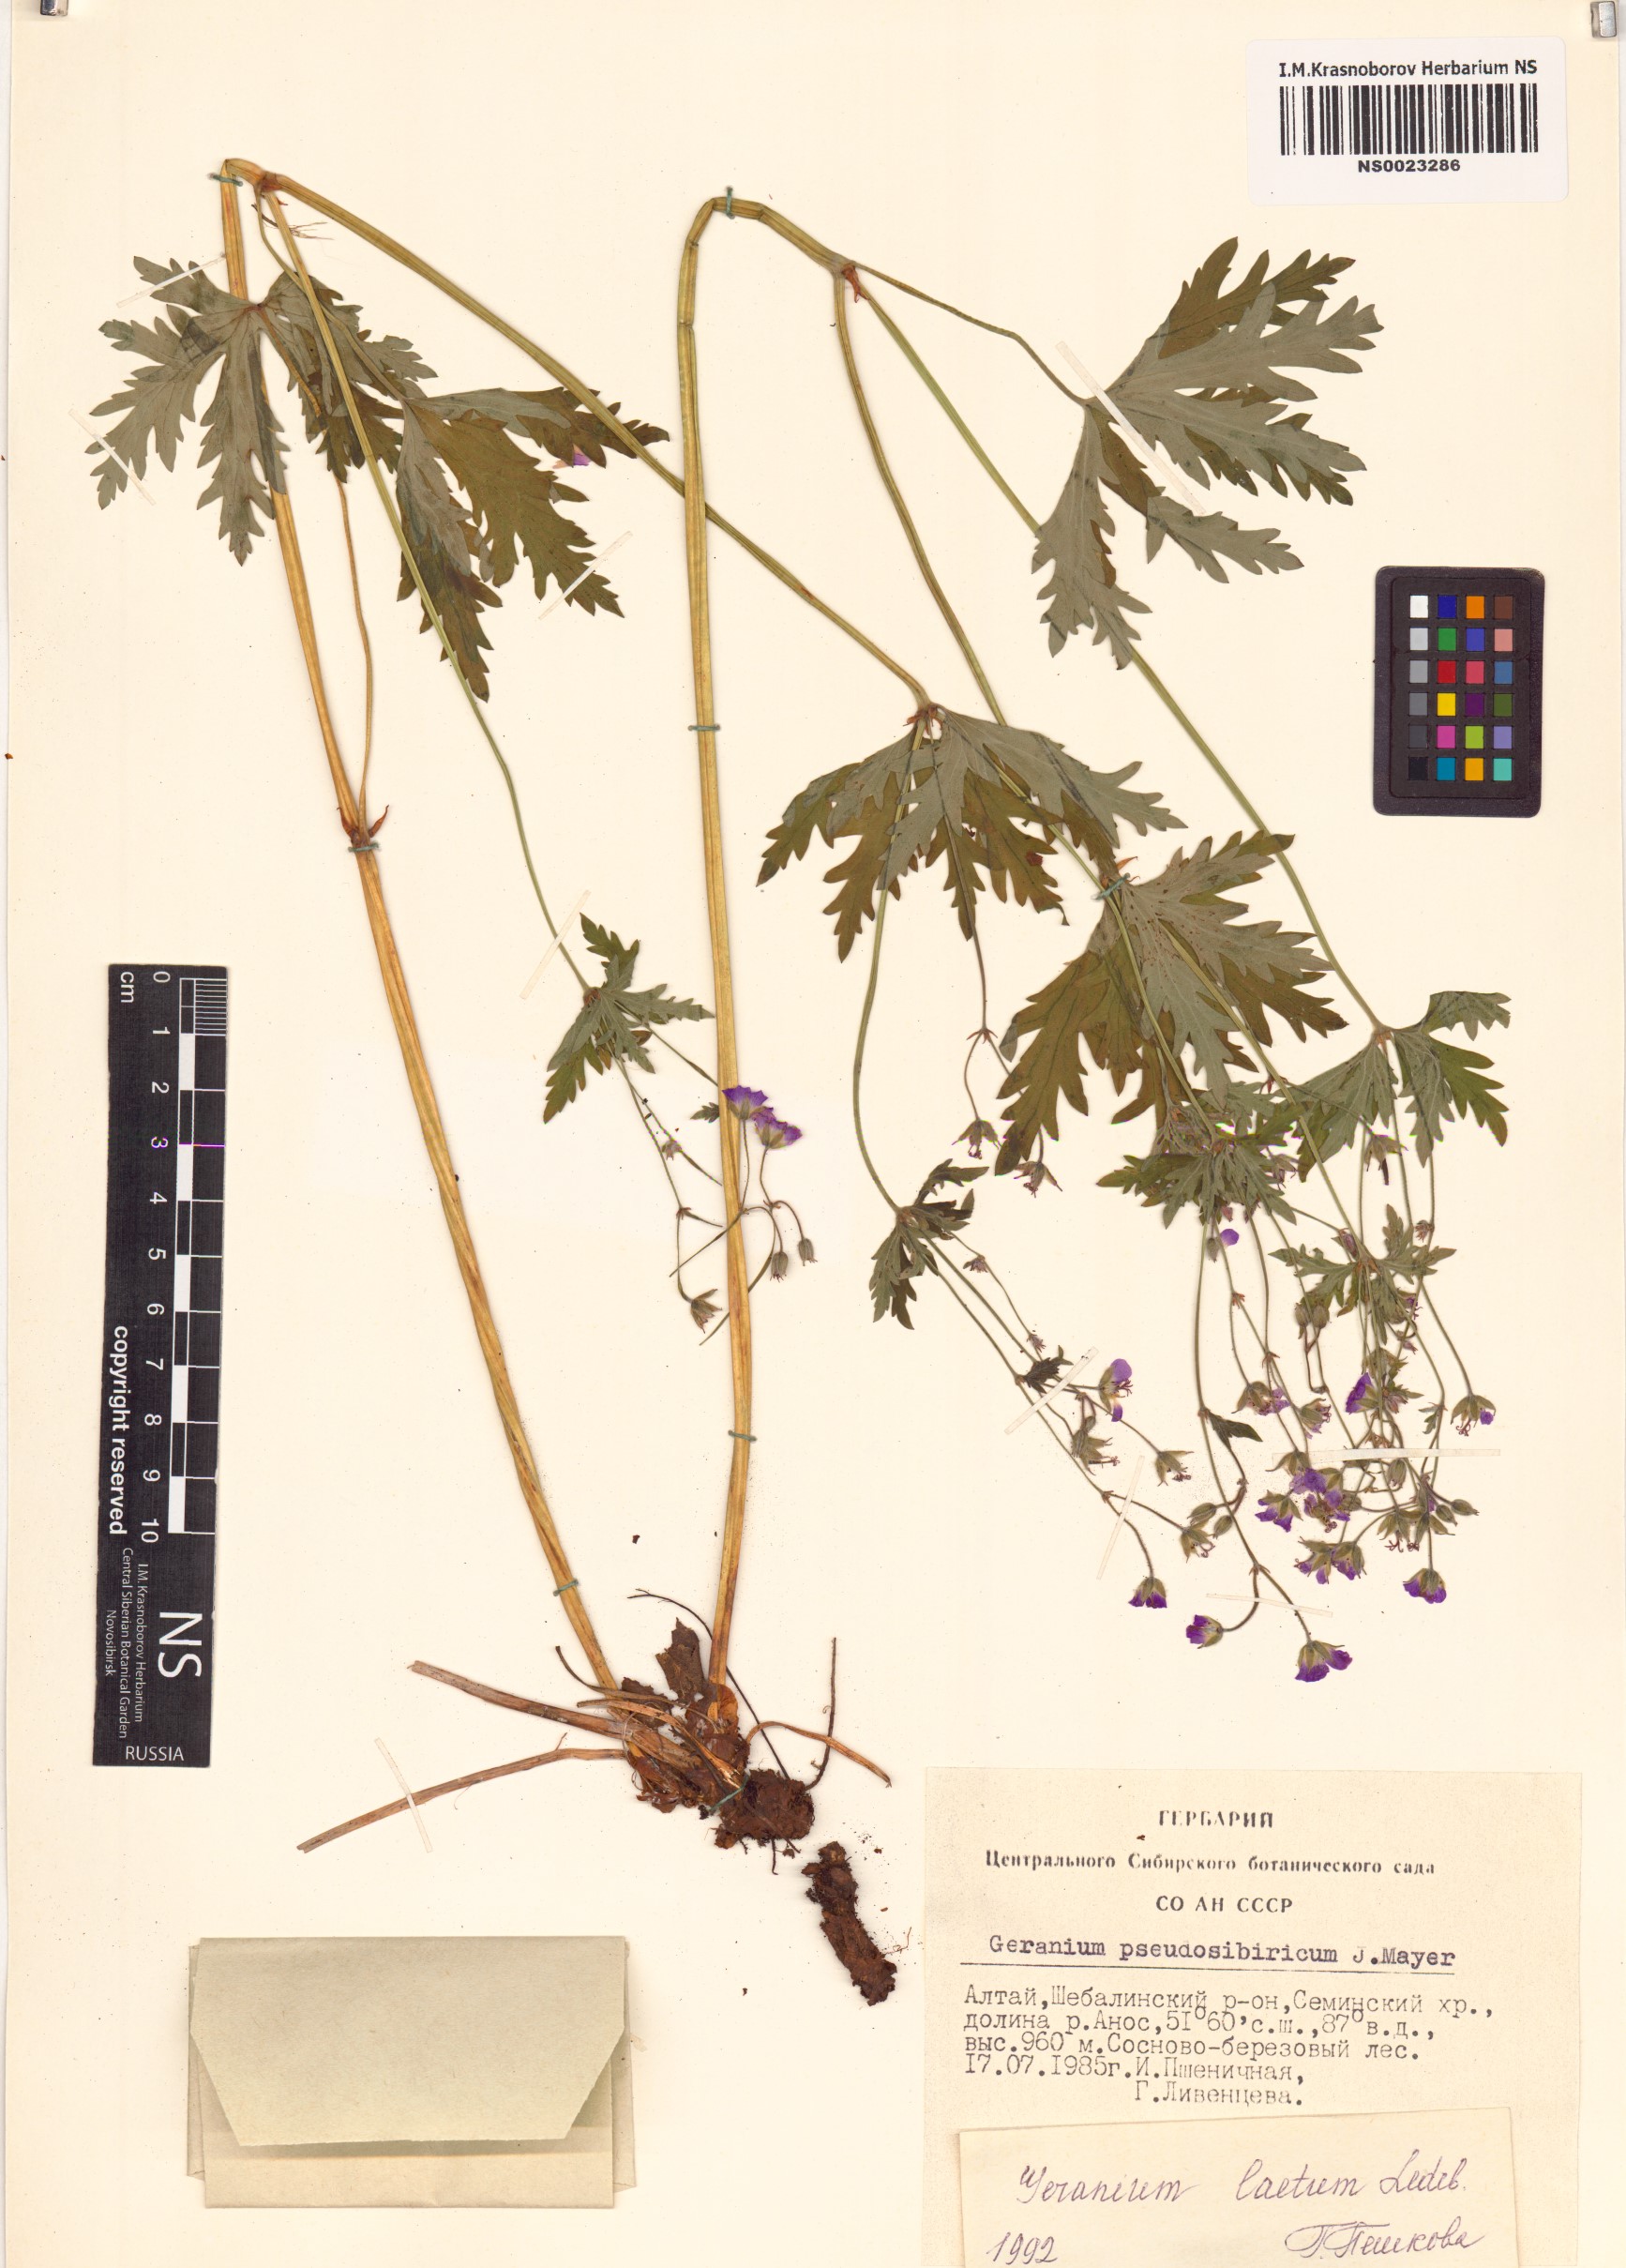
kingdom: Plantae
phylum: Tracheophyta
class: Magnoliopsida
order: Geraniales
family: Geraniaceae
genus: Geranium
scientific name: Geranium pseudosibiricum
